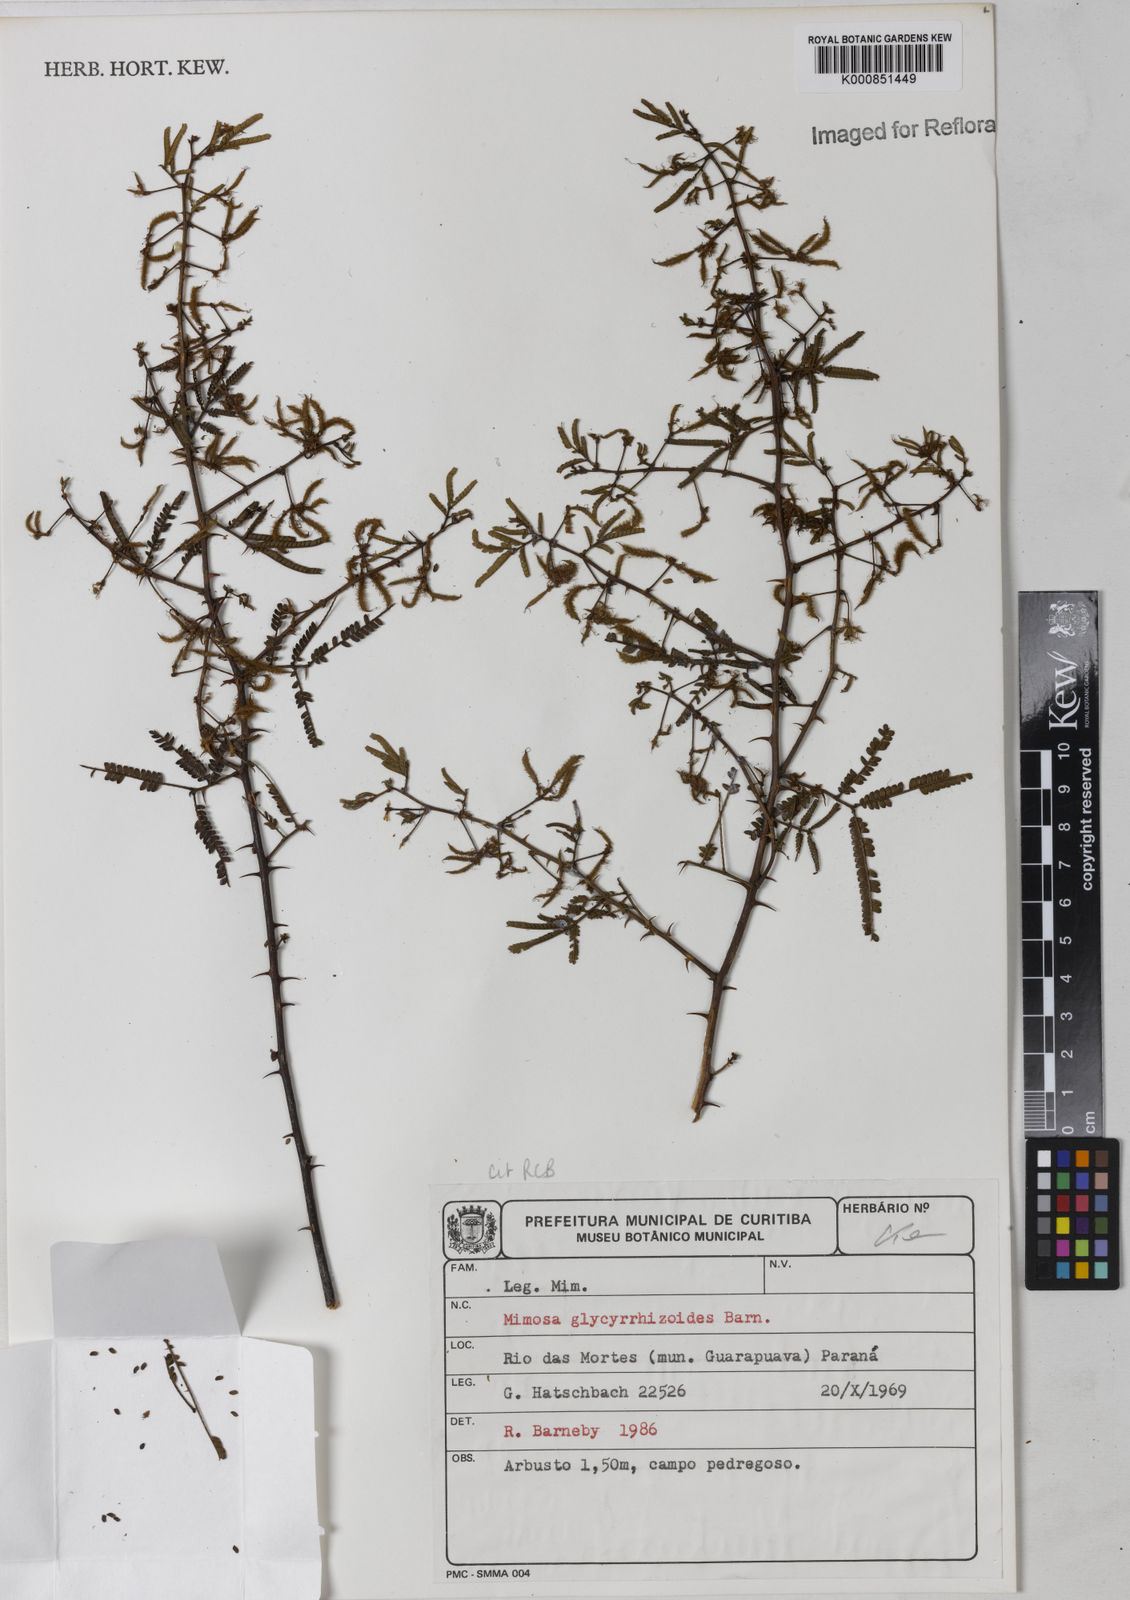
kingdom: Plantae
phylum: Tracheophyta
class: Magnoliopsida
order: Fabales
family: Fabaceae
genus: Mimosa
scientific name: Mimosa glycyrrhizoides
